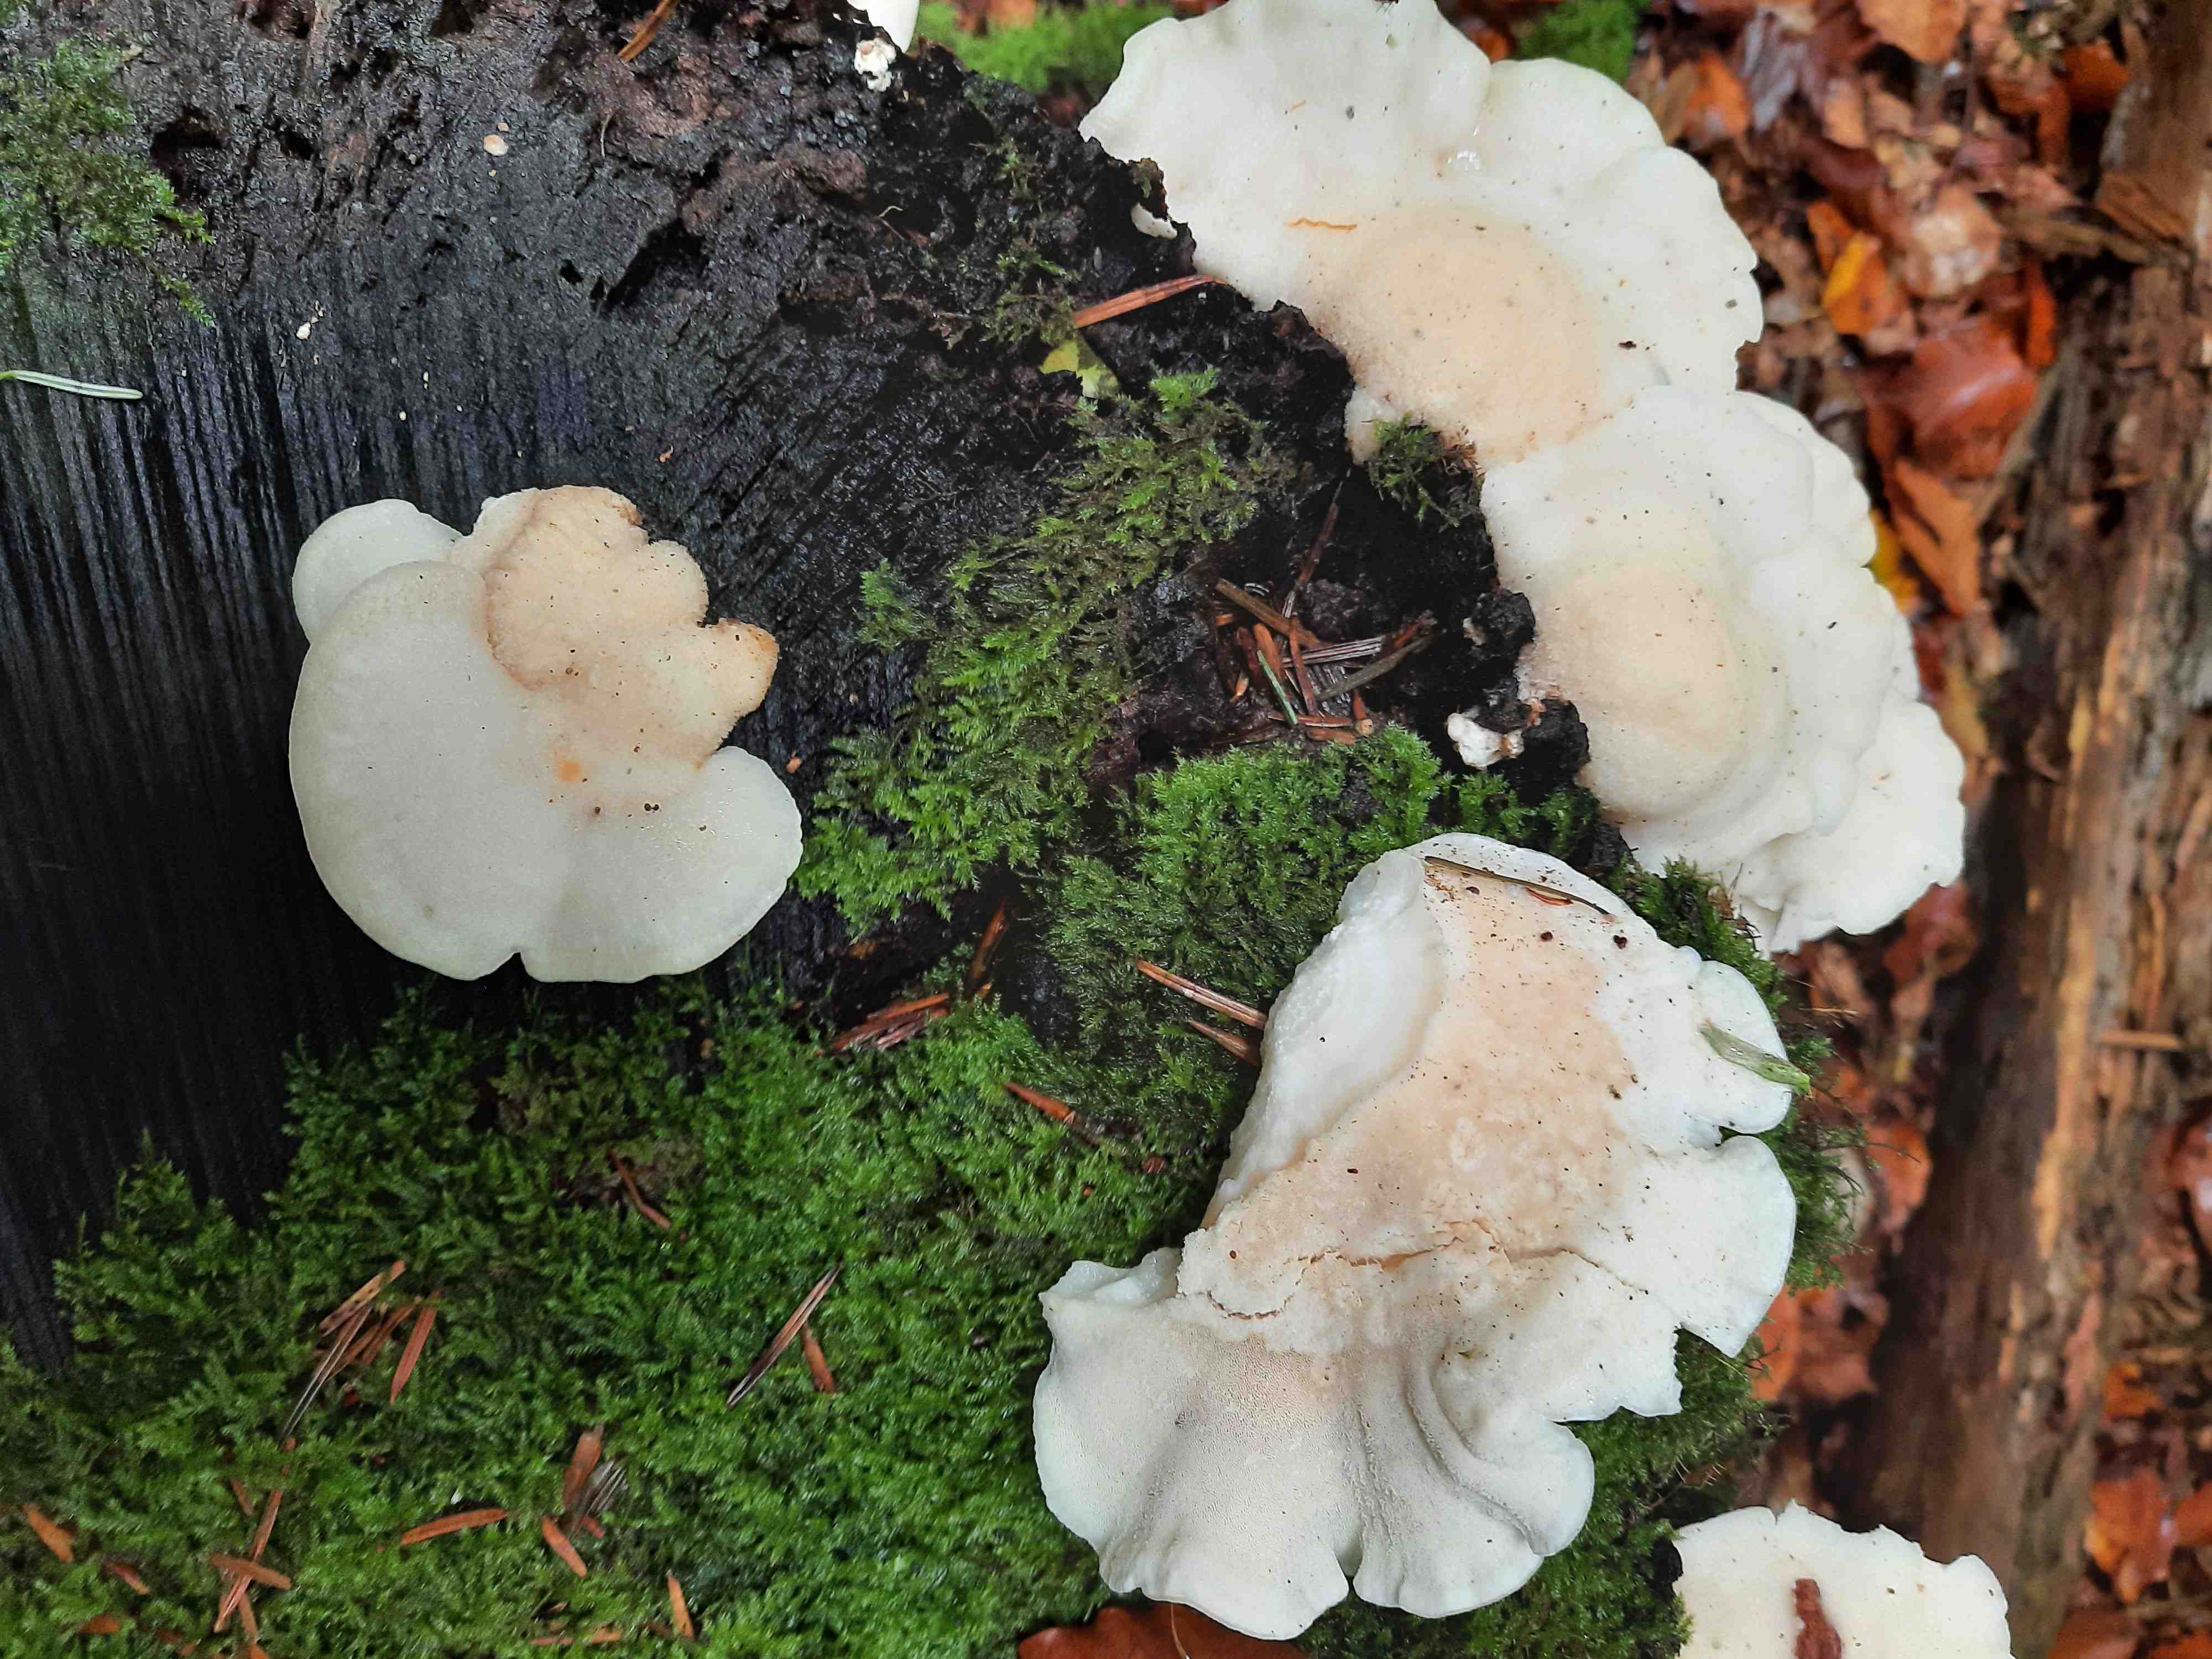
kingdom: Fungi
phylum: Basidiomycota
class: Agaricomycetes
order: Polyporales
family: Incrustoporiaceae
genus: Tyromyces
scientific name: Tyromyces lacteus
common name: mælkehvid kødporesvamp
